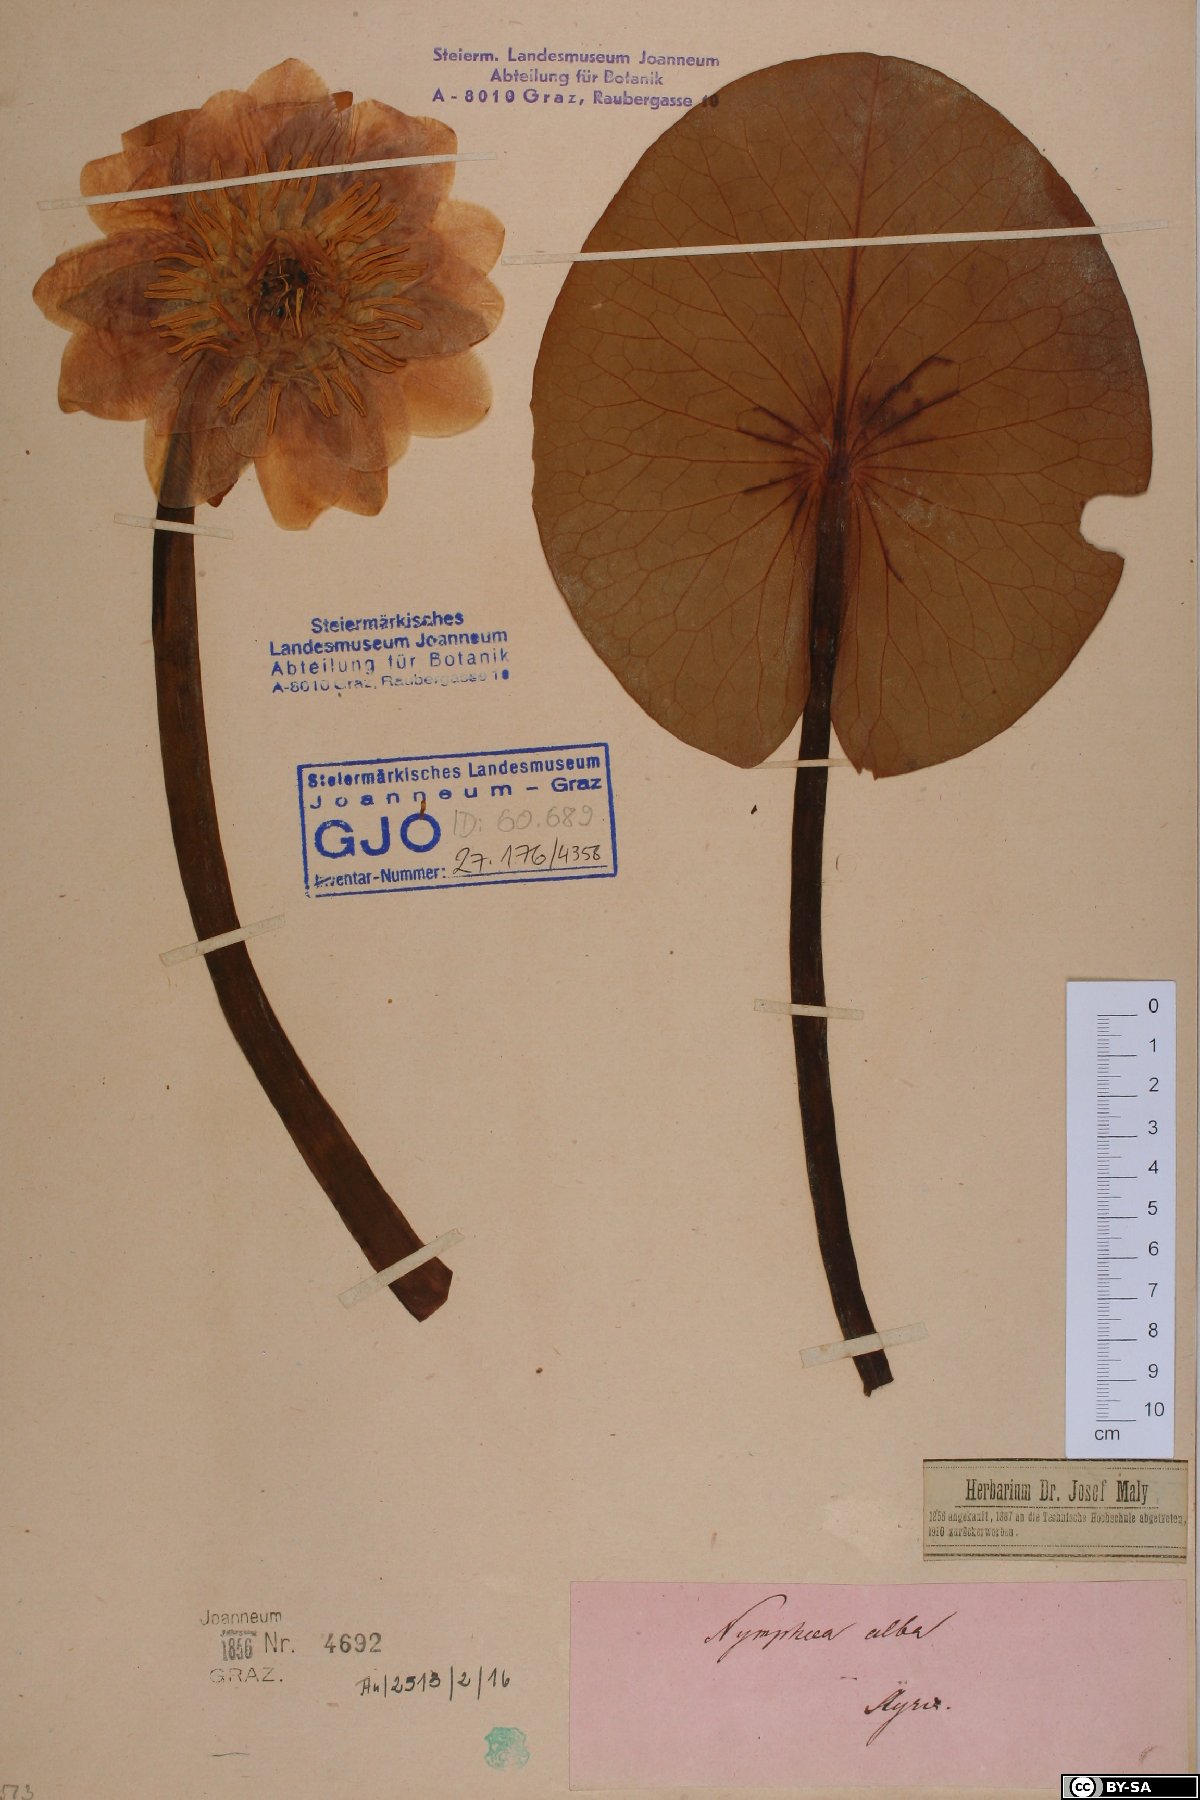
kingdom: Plantae
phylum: Tracheophyta
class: Magnoliopsida
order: Nymphaeales
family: Nymphaeaceae
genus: Nymphaea
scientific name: Nymphaea alba
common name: White water-lily
